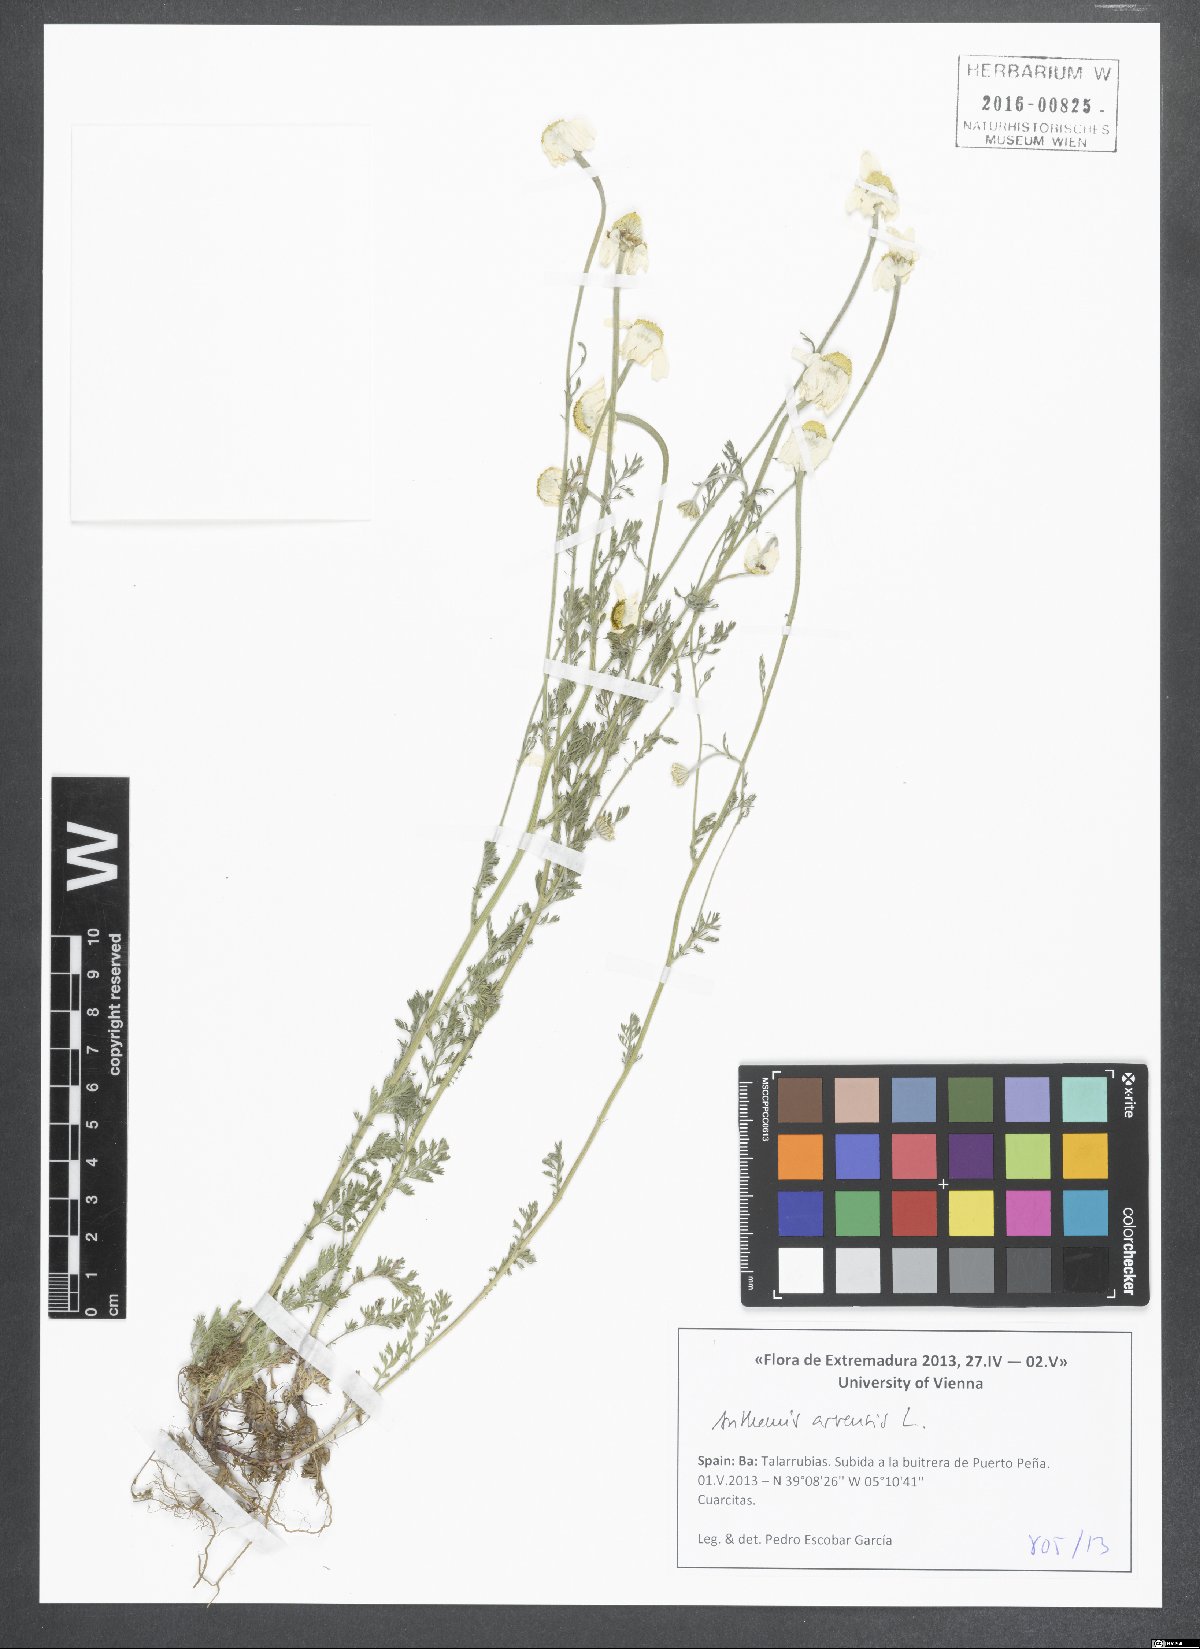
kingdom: Plantae
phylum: Tracheophyta
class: Magnoliopsida
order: Asterales
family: Asteraceae
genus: Anthemis
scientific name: Anthemis arvensis
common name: Corn chamomile
